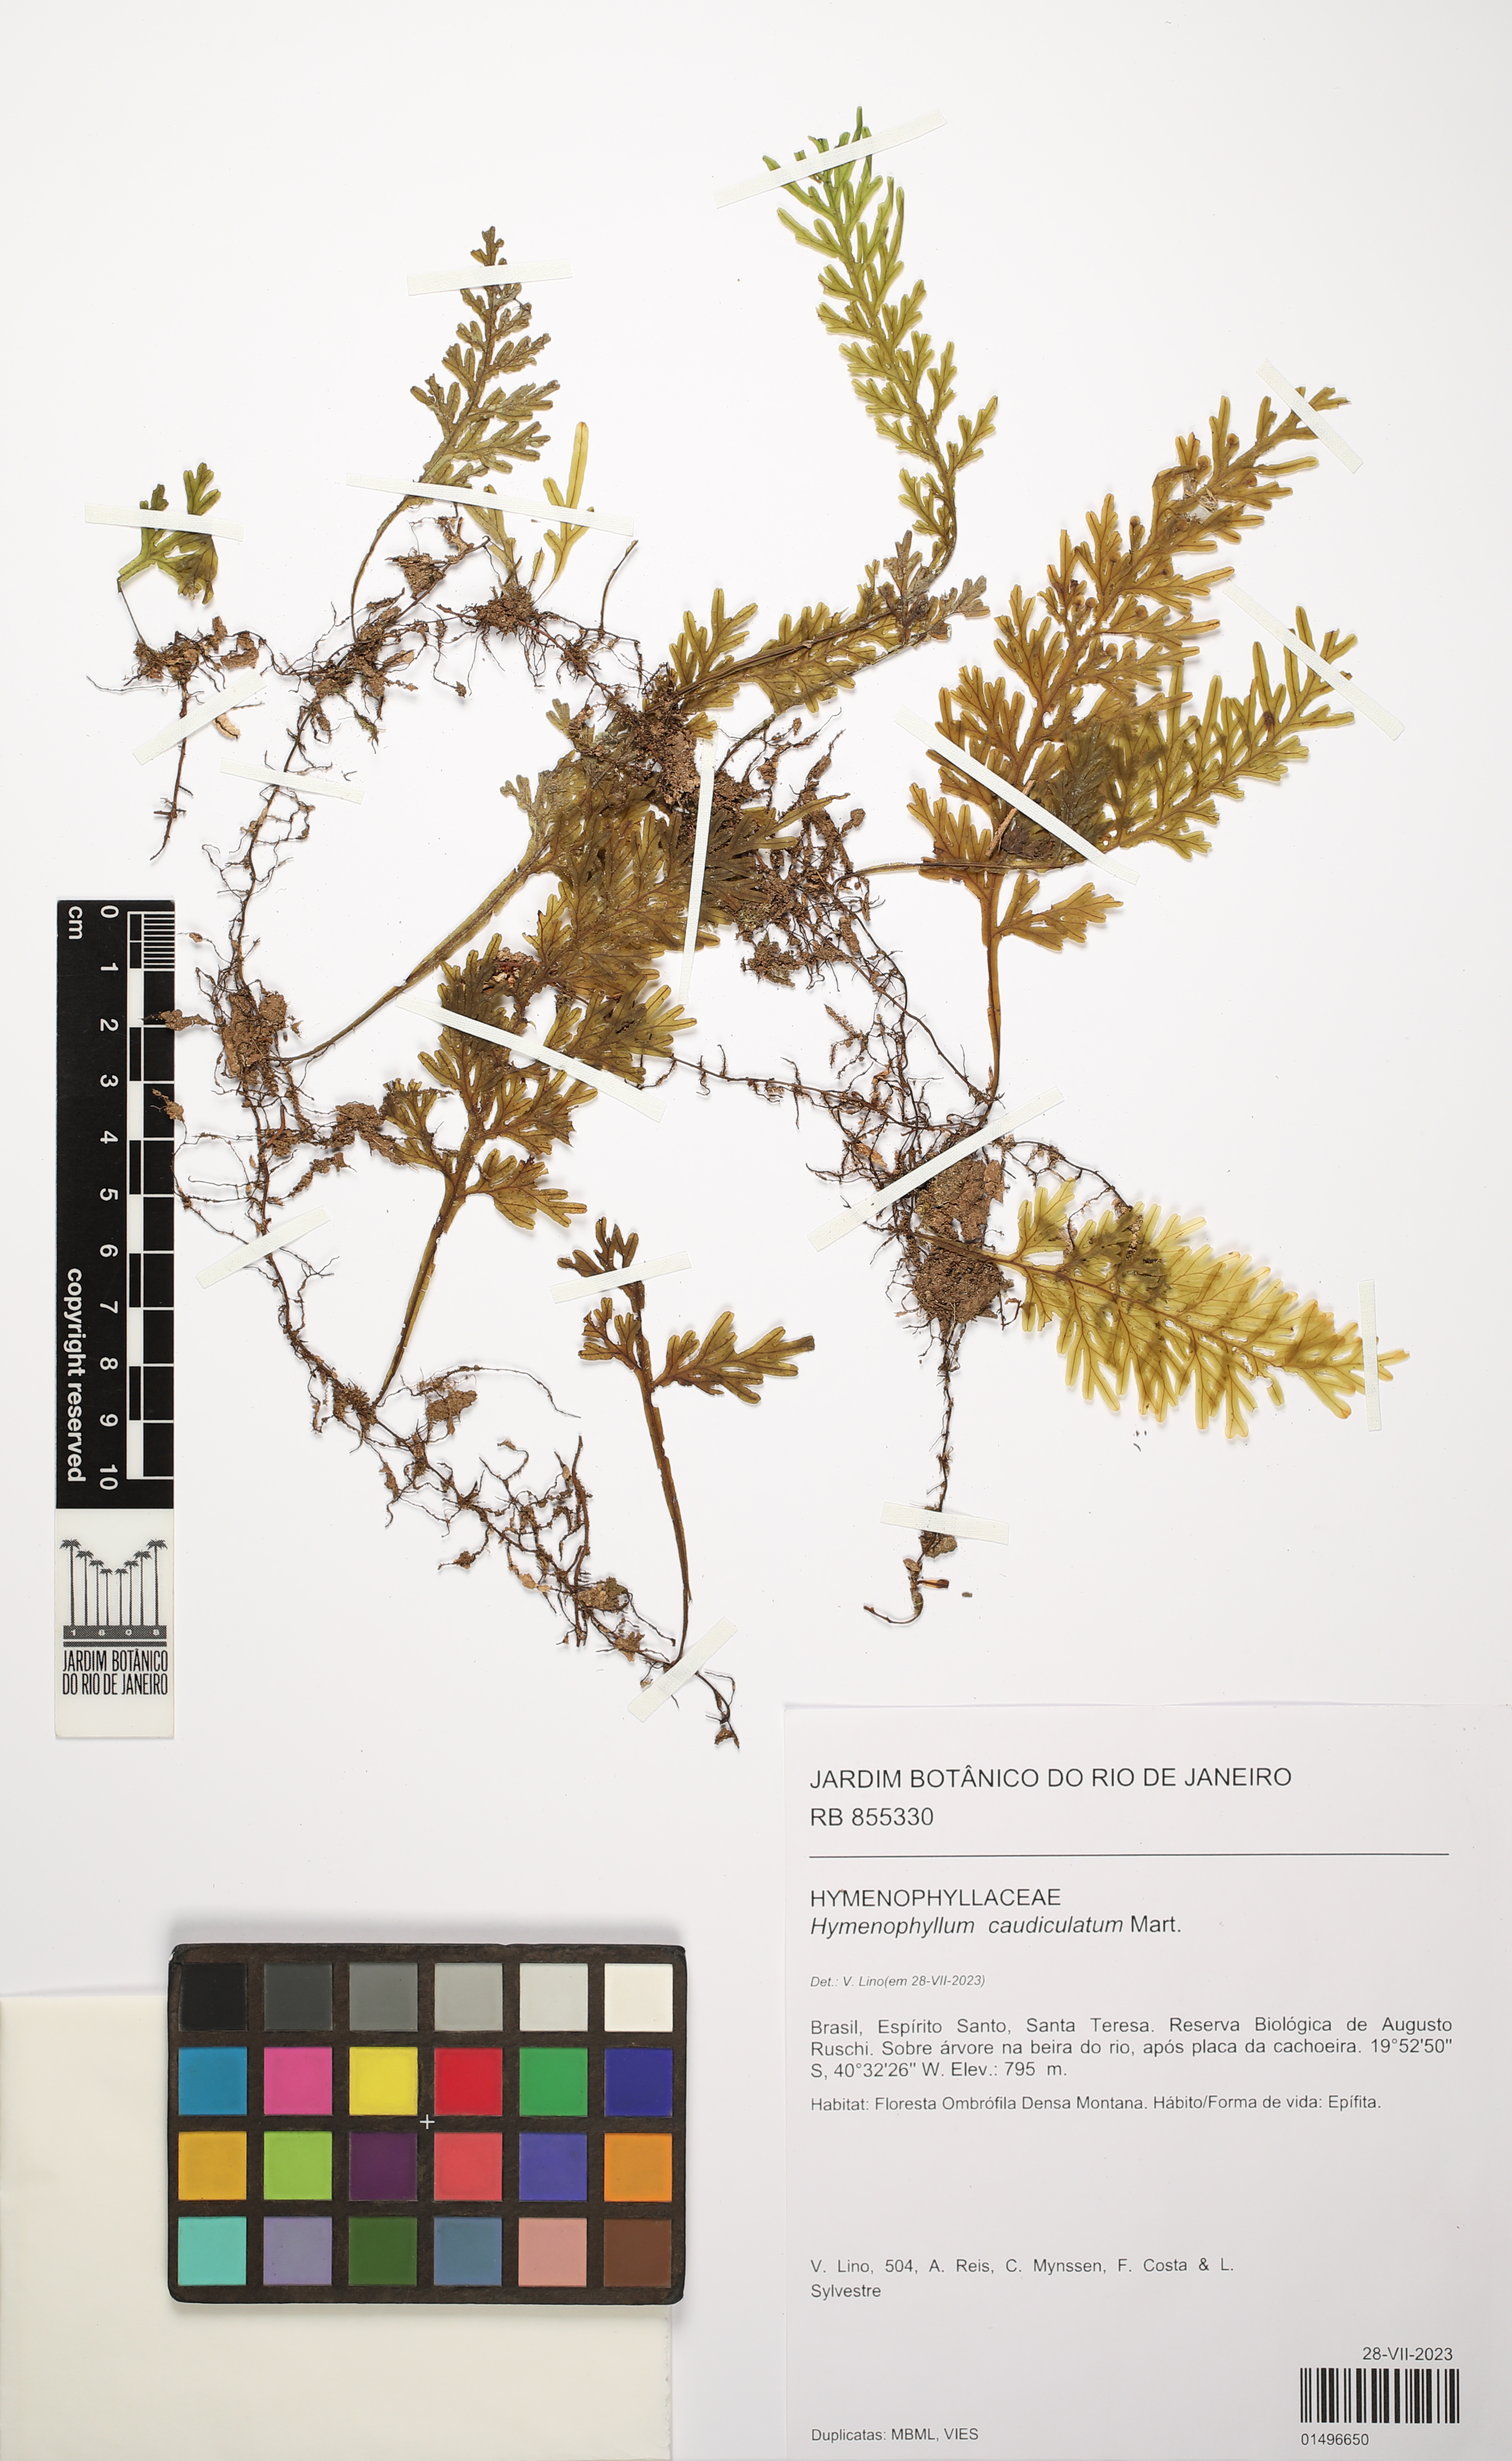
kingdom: Plantae
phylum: Tracheophyta
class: Polypodiopsida
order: Hymenophyllales
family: Hymenophyllaceae
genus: Hymenophyllum
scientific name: Hymenophyllum caudiculatum
